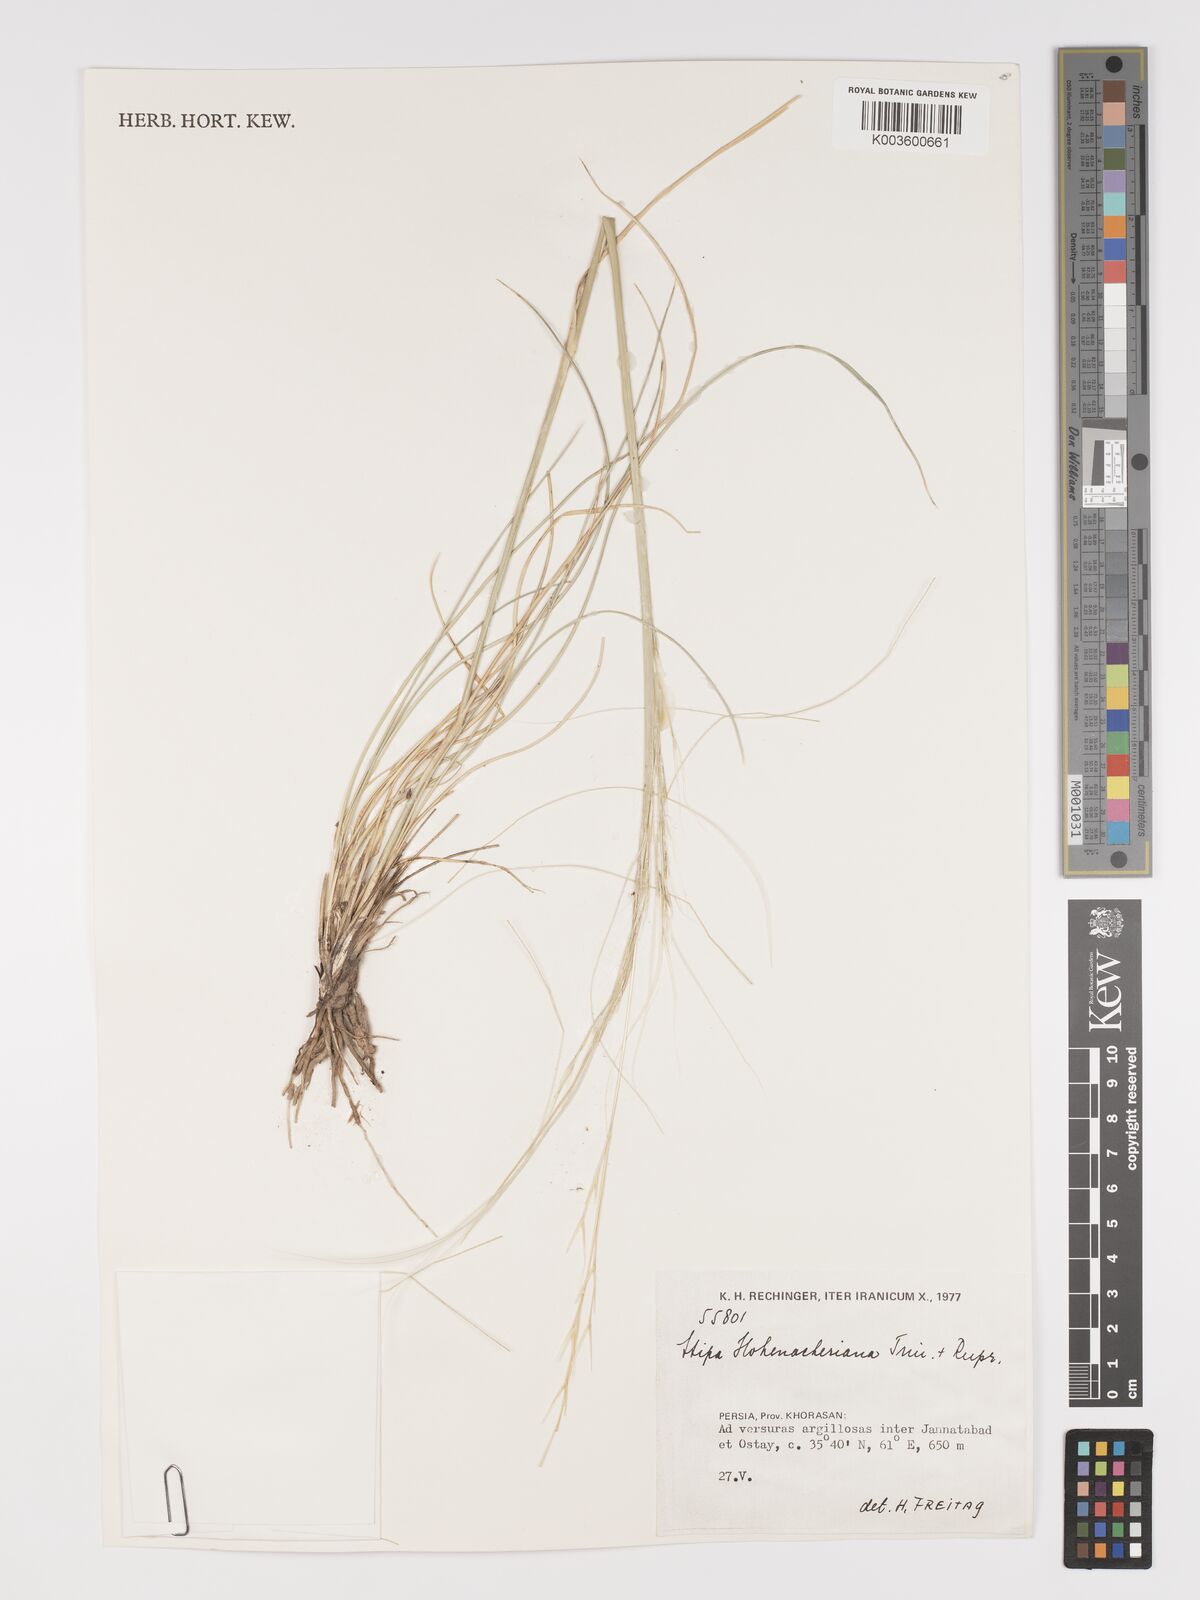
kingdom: Plantae
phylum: Tracheophyta
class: Liliopsida
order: Poales
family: Poaceae
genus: Stipa
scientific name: Stipa hohenackeriana
